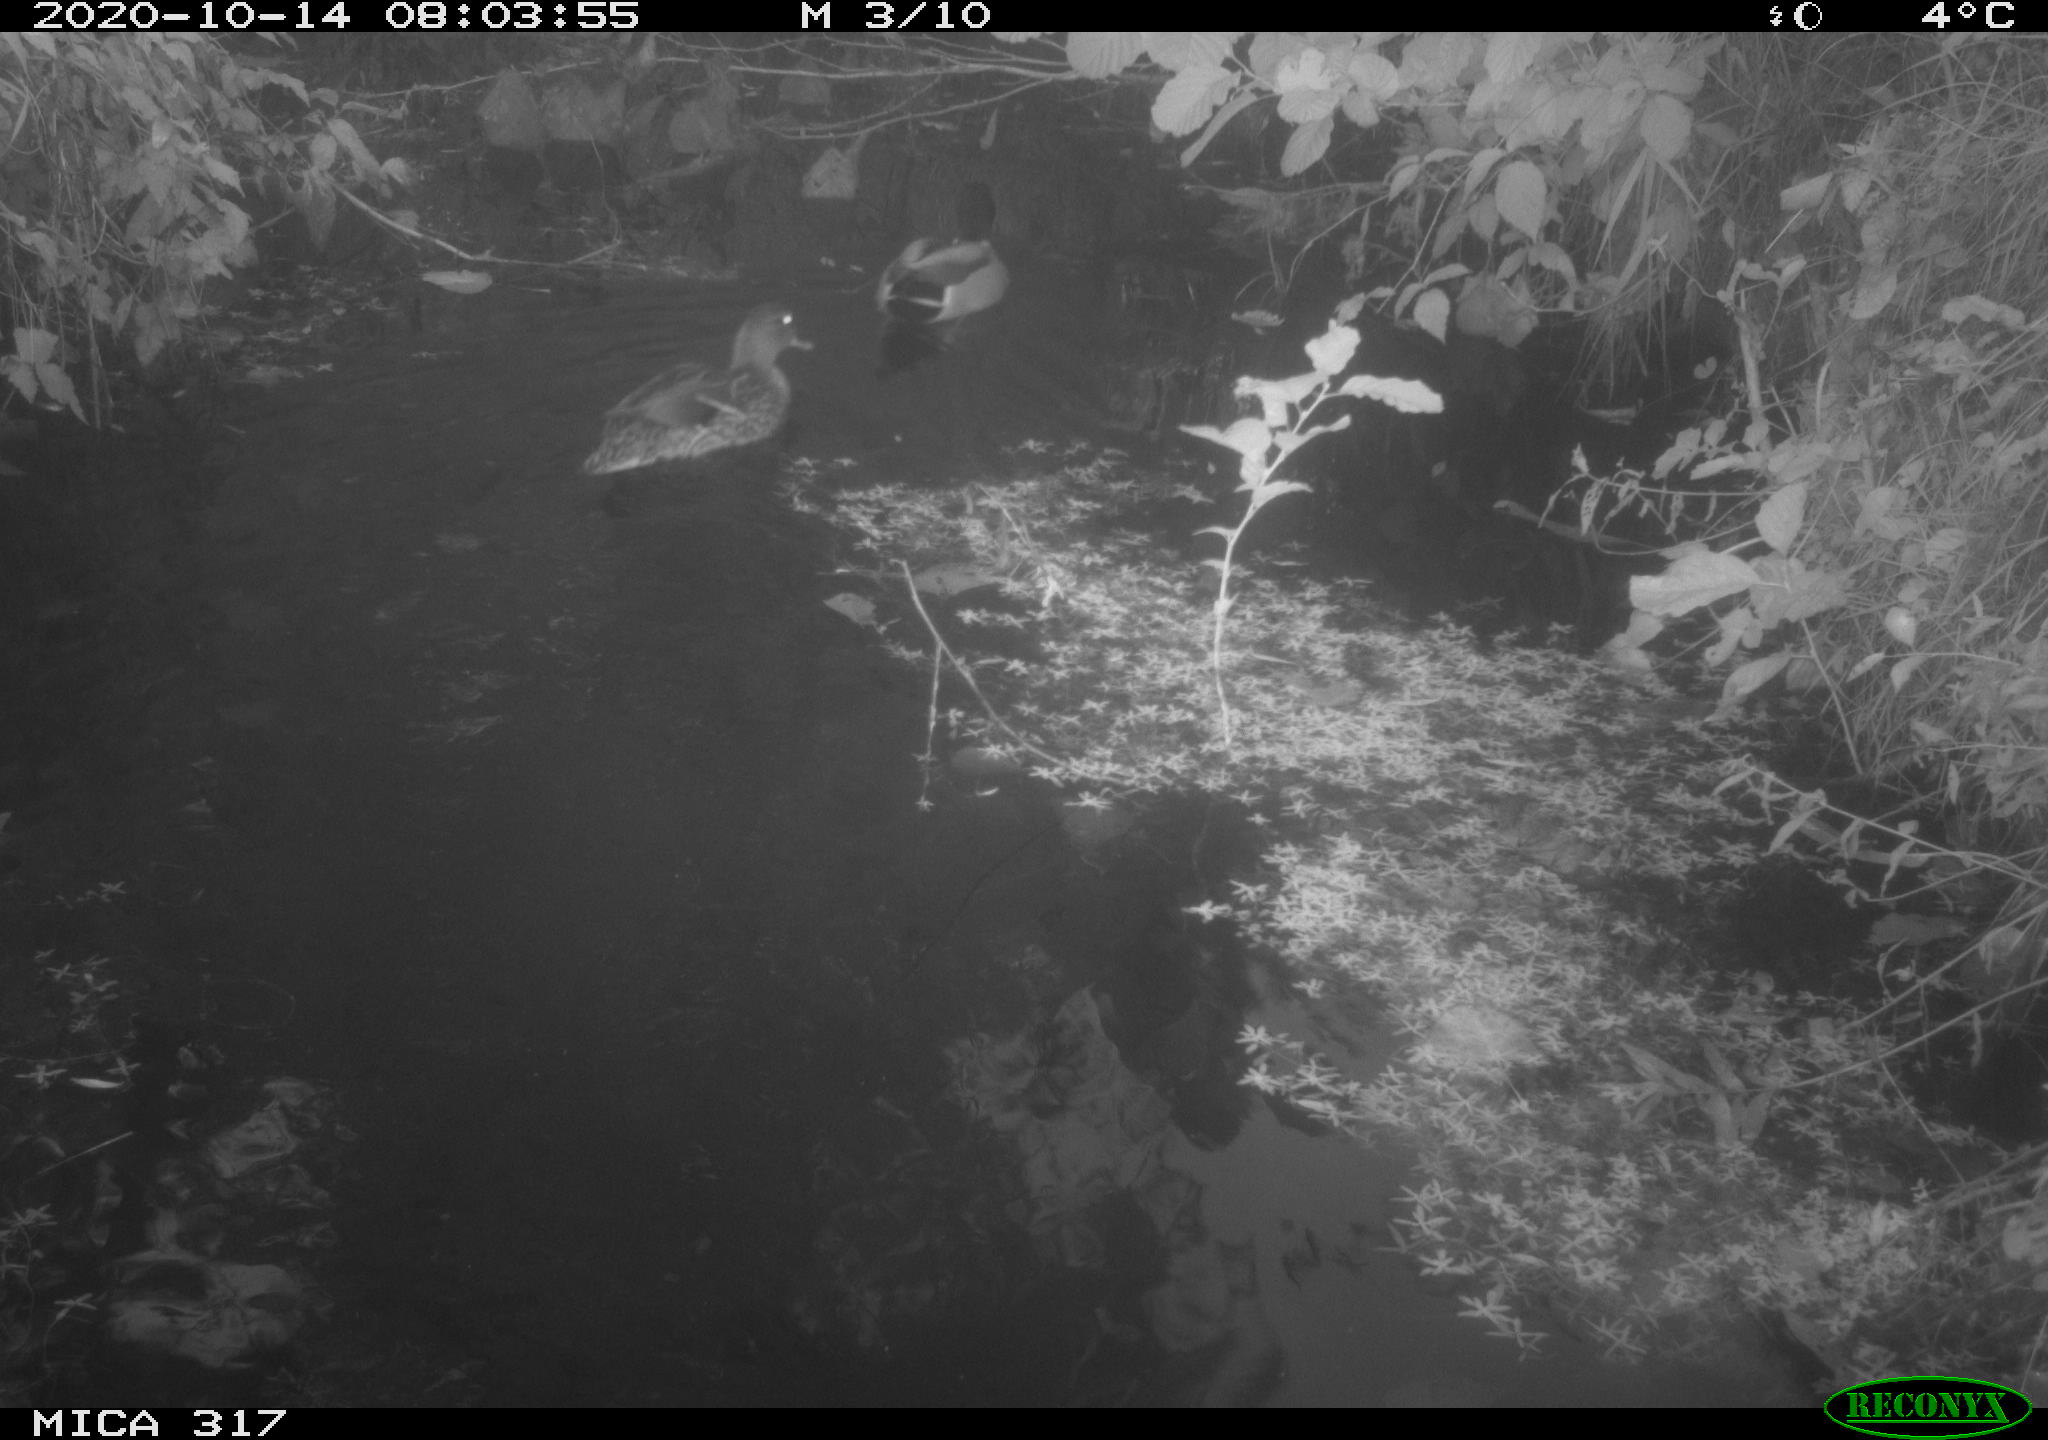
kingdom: Animalia
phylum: Chordata
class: Aves
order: Anseriformes
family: Anatidae
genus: Anas
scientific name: Anas platyrhynchos
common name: Mallard
